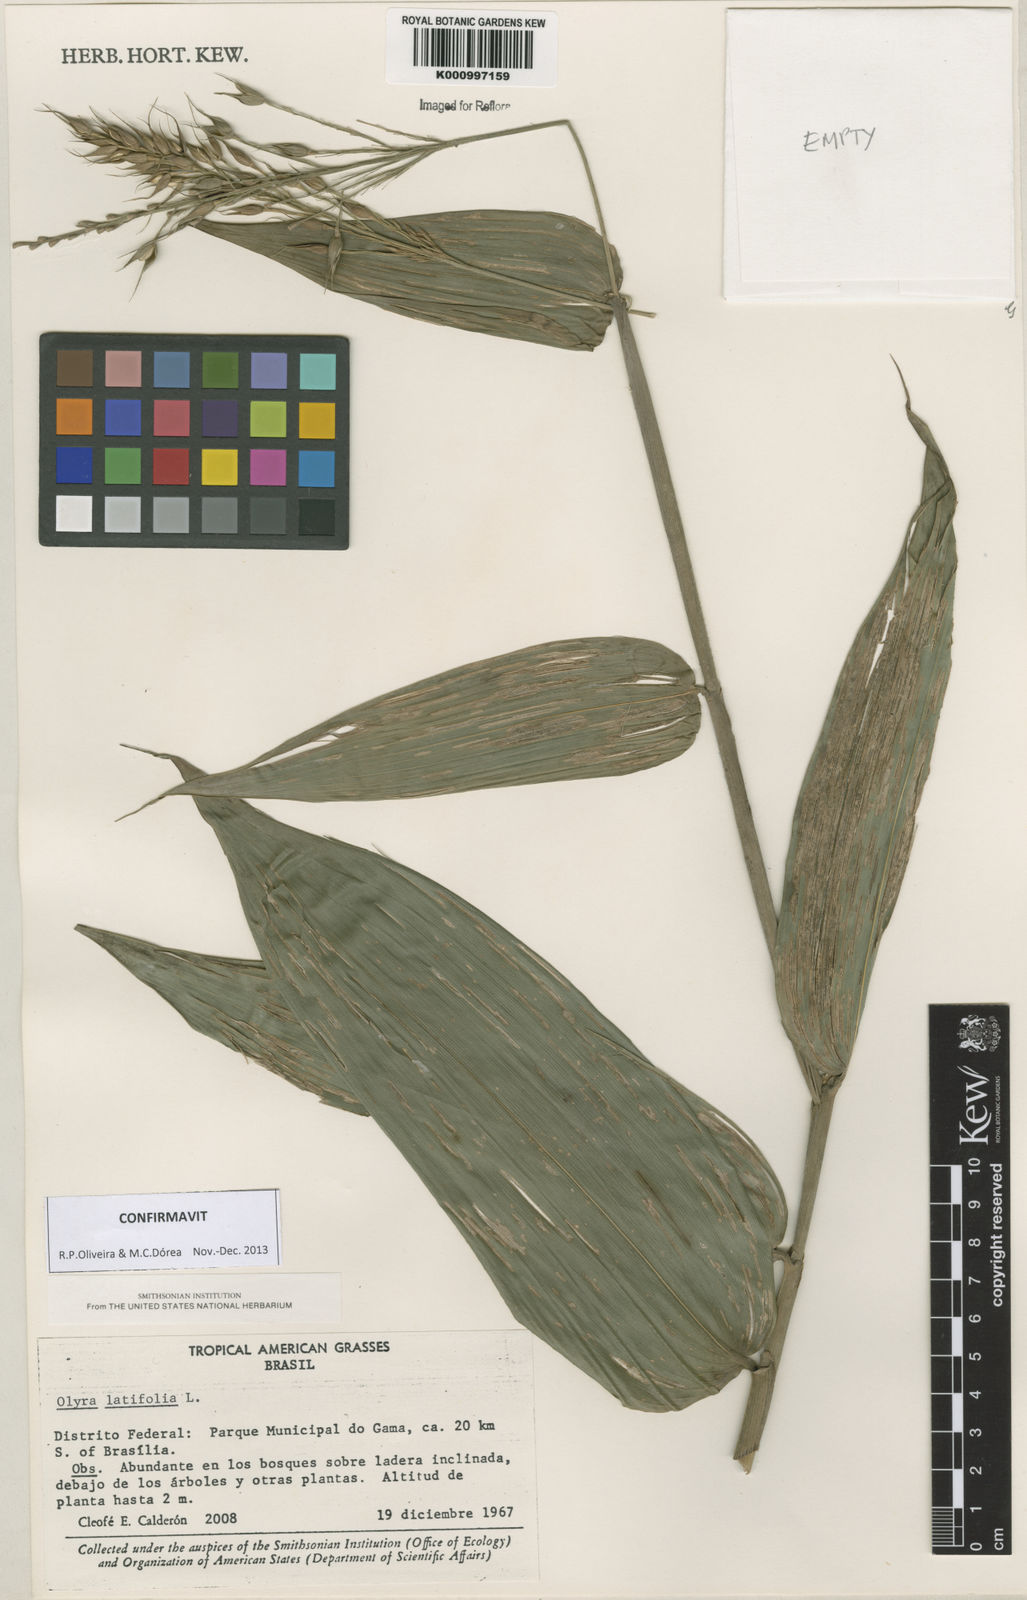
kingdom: Plantae
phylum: Tracheophyta
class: Liliopsida
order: Poales
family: Poaceae
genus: Olyra
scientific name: Olyra latifolia
